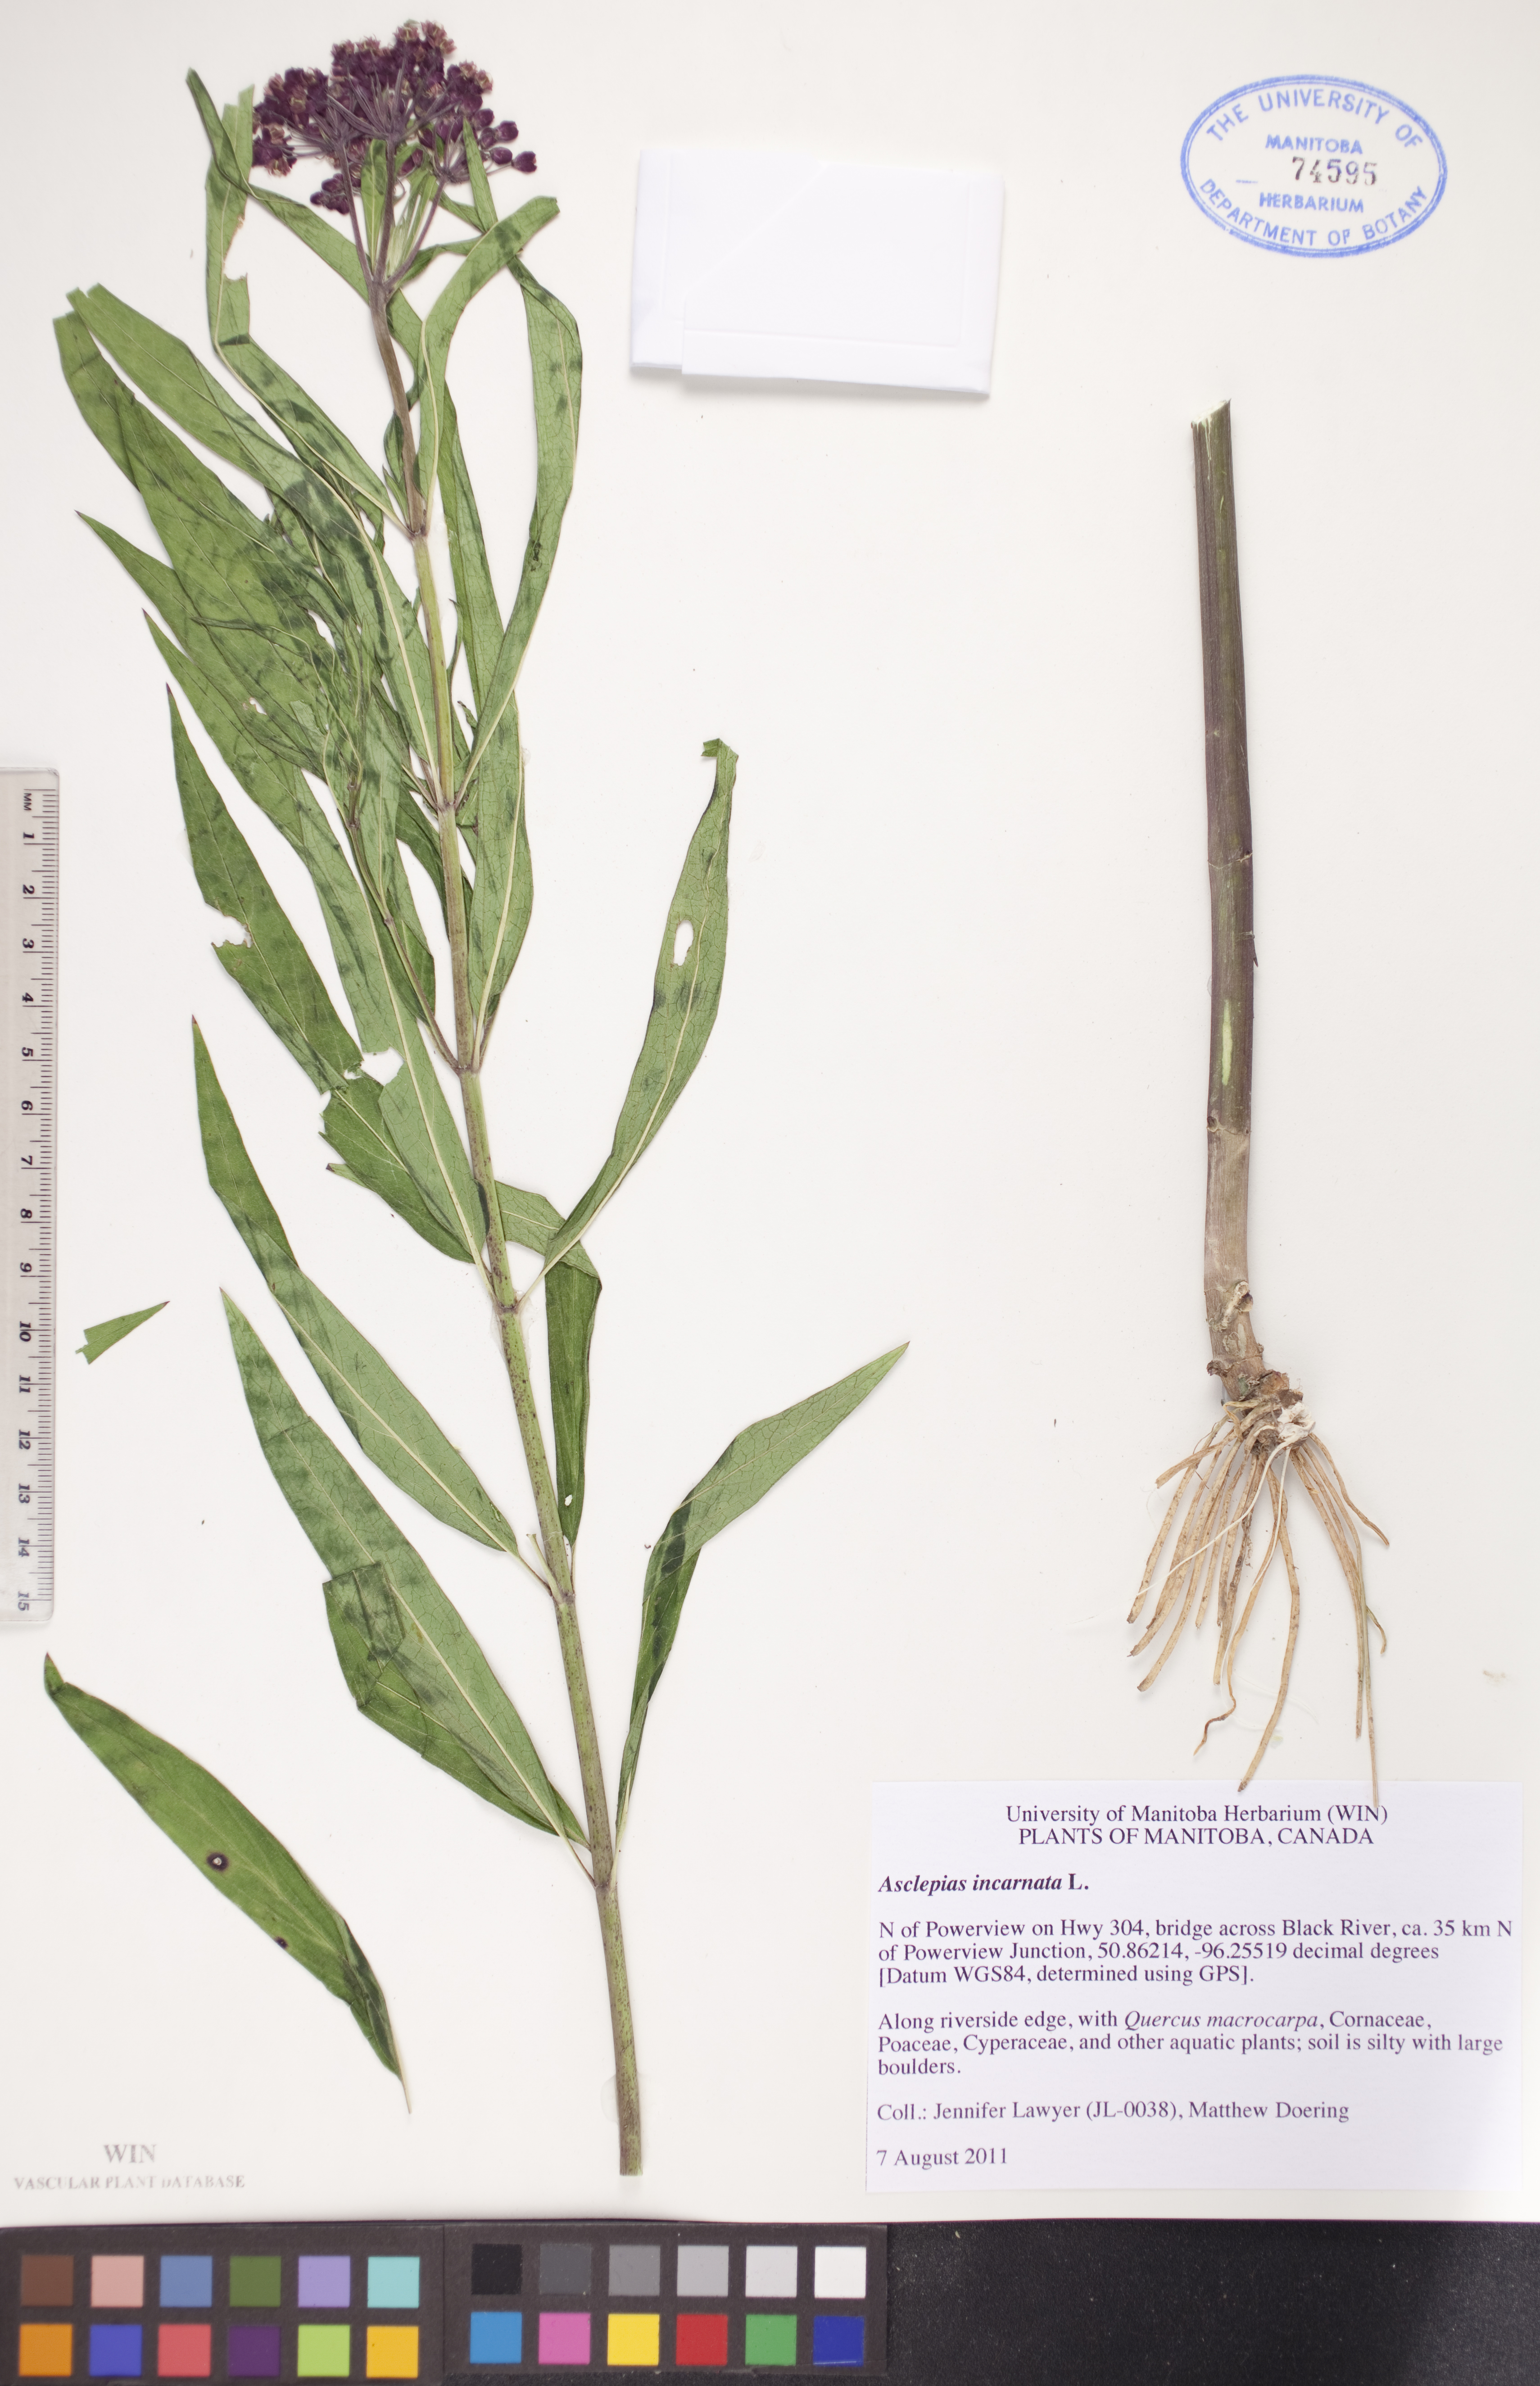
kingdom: Plantae
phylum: Tracheophyta
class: Magnoliopsida
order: Gentianales
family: Apocynaceae
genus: Asclepias
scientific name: Asclepias incarnata
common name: Swamp milkweed
